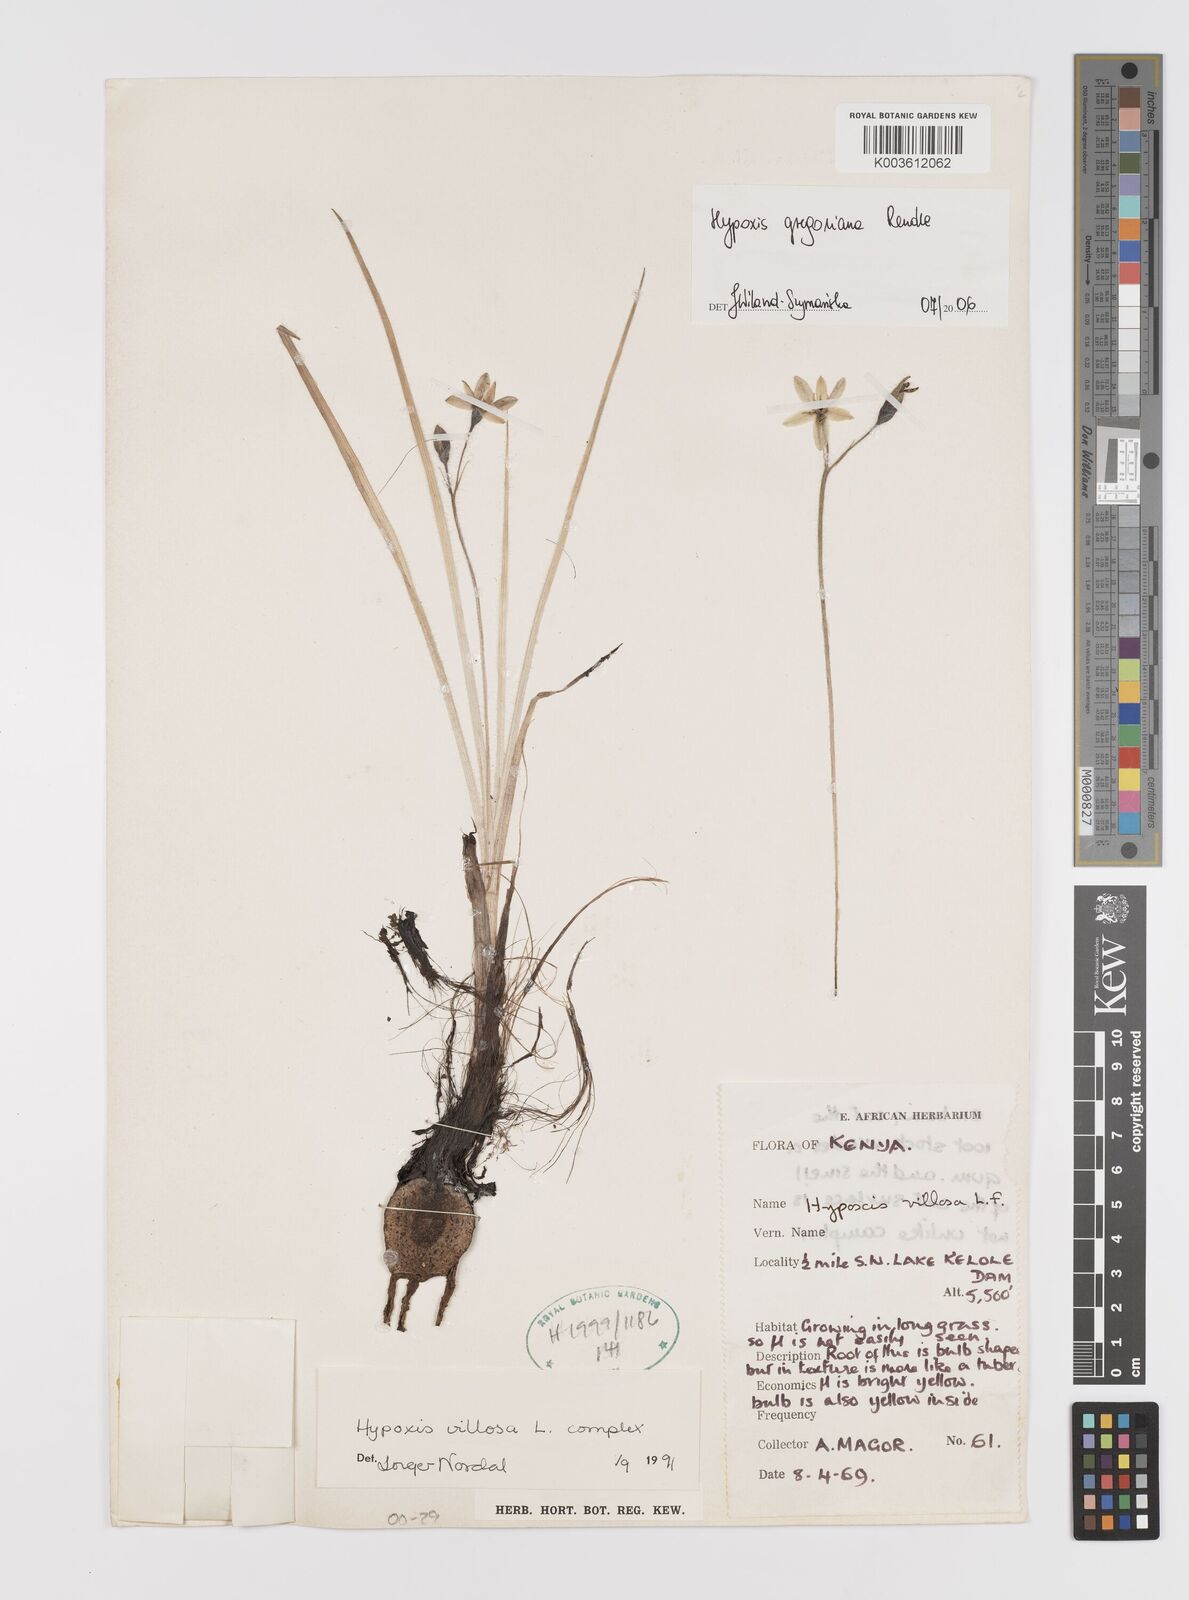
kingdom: Plantae
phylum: Tracheophyta
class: Liliopsida
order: Asparagales
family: Hypoxidaceae
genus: Hypoxis
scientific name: Hypoxis gregoriana
